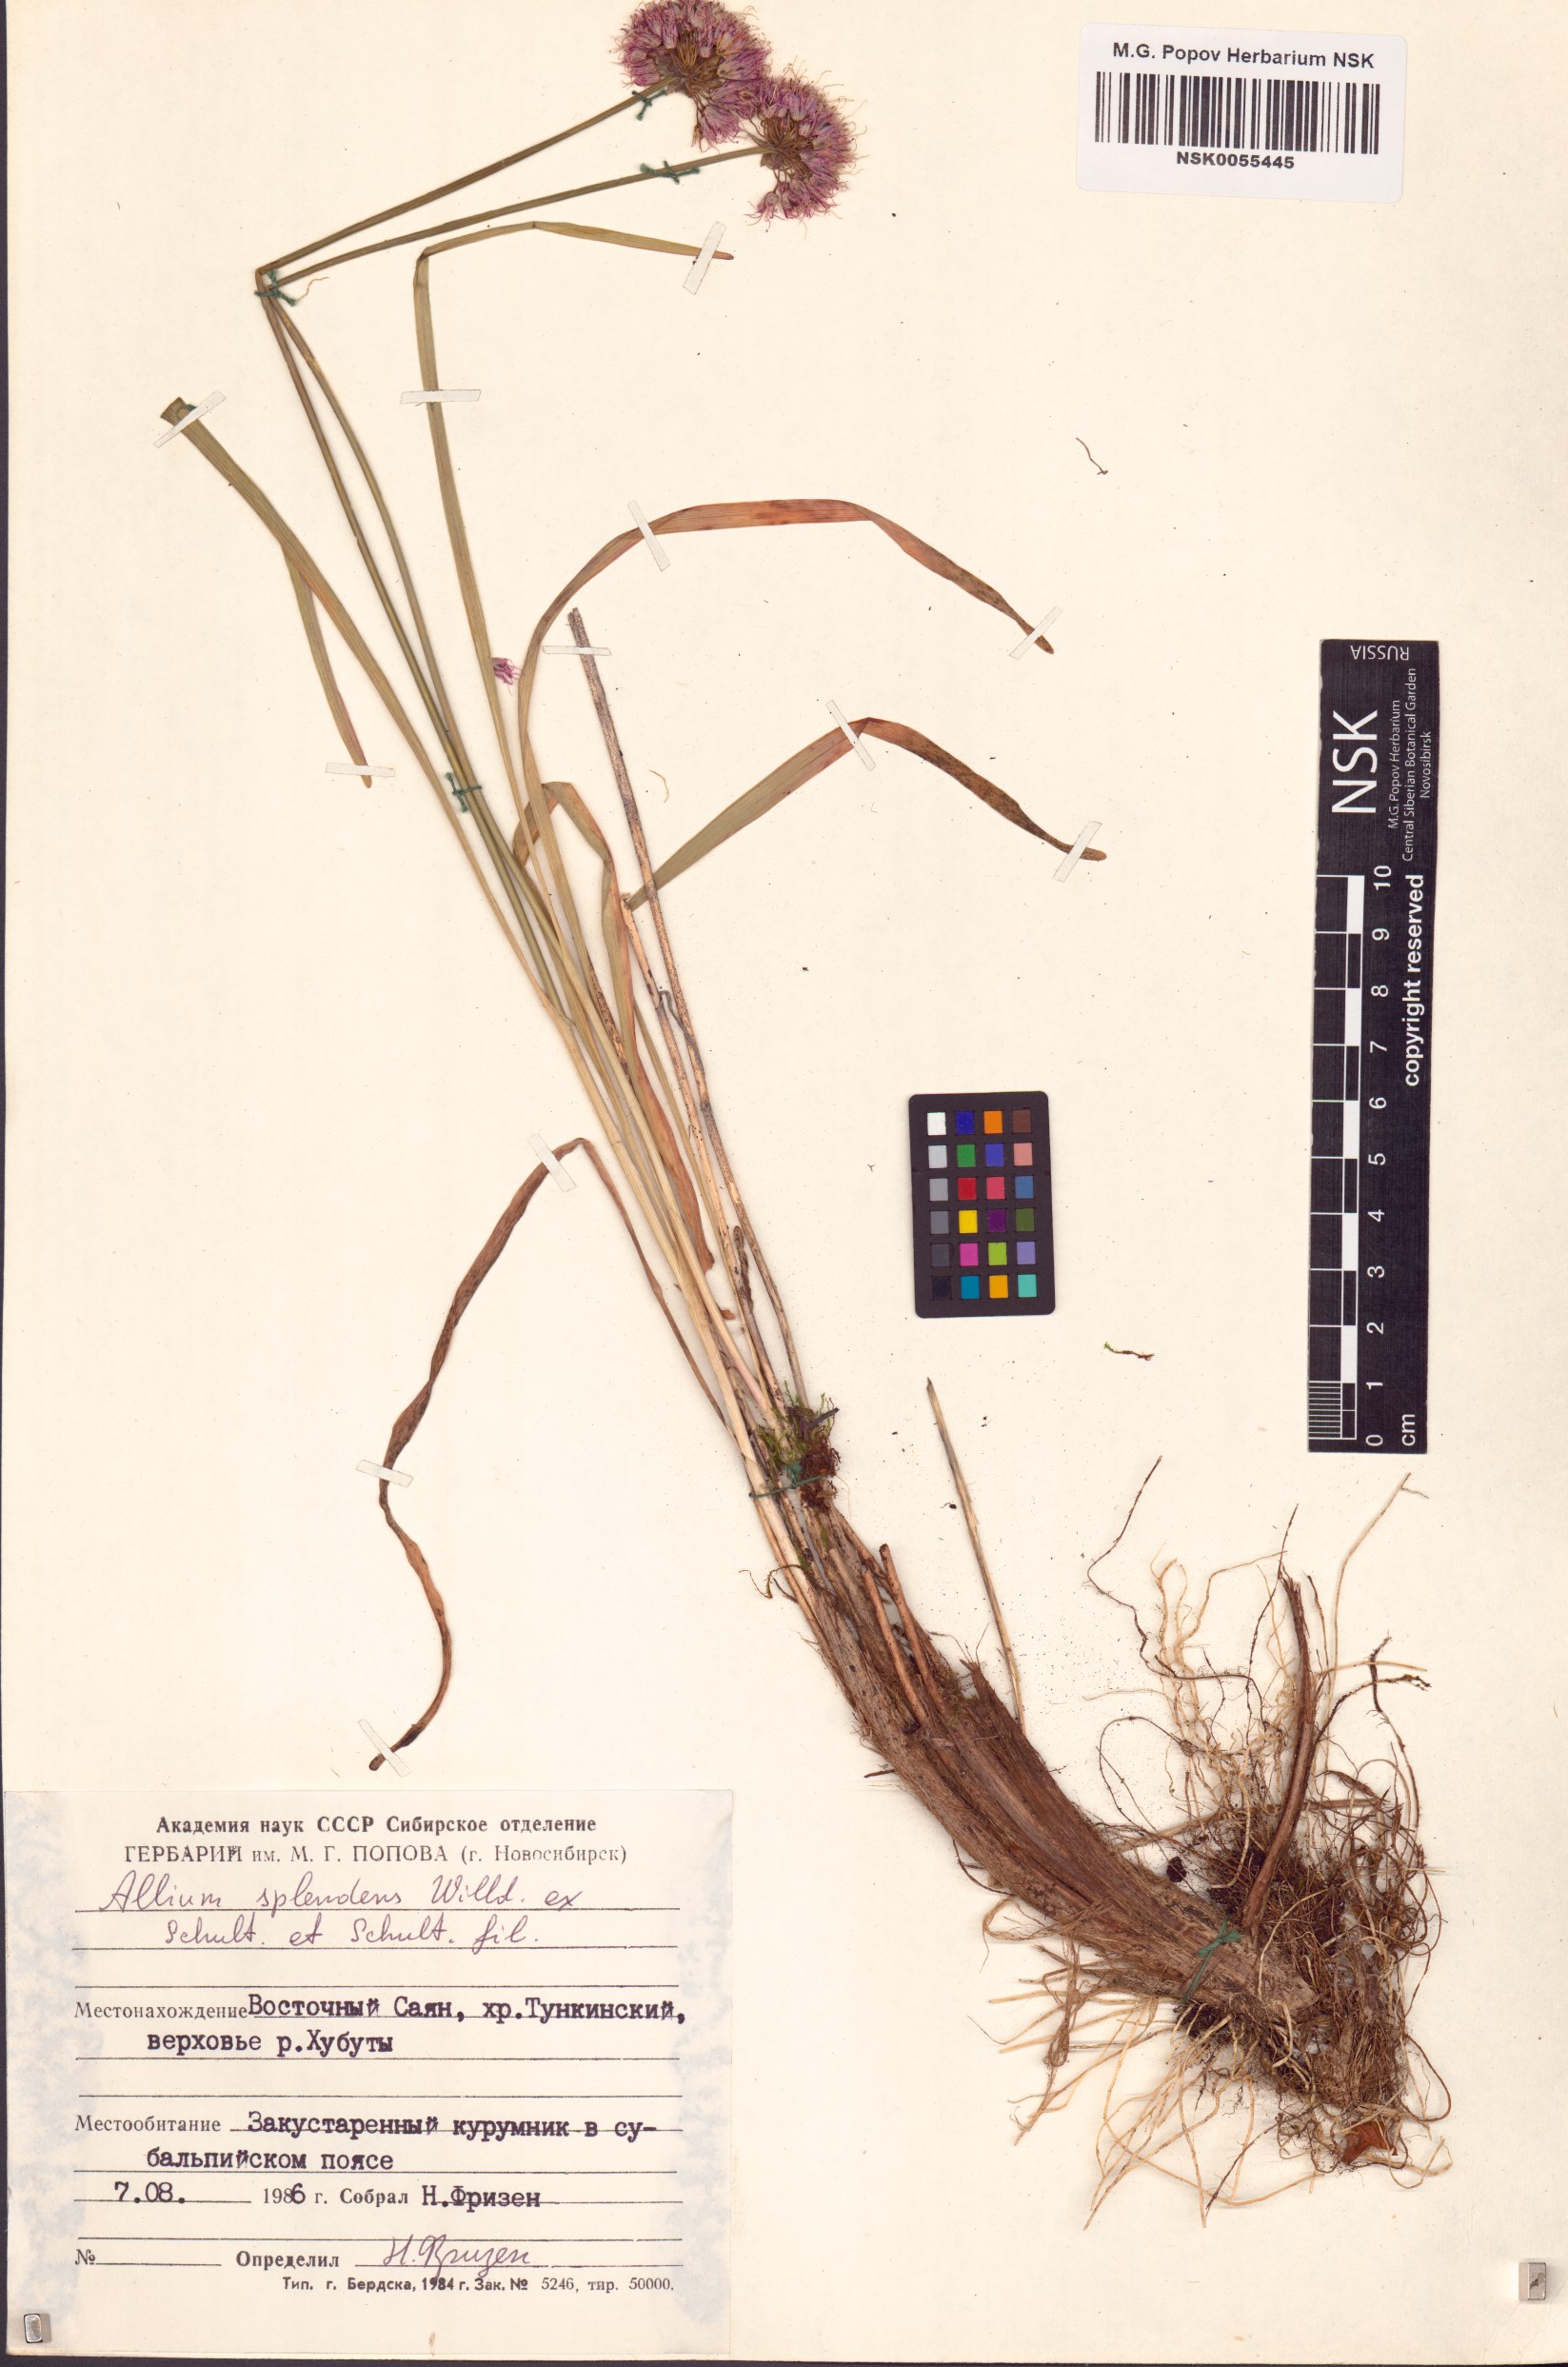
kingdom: Plantae
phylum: Tracheophyta
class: Liliopsida
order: Asparagales
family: Amaryllidaceae
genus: Allium
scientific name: Allium splendens
